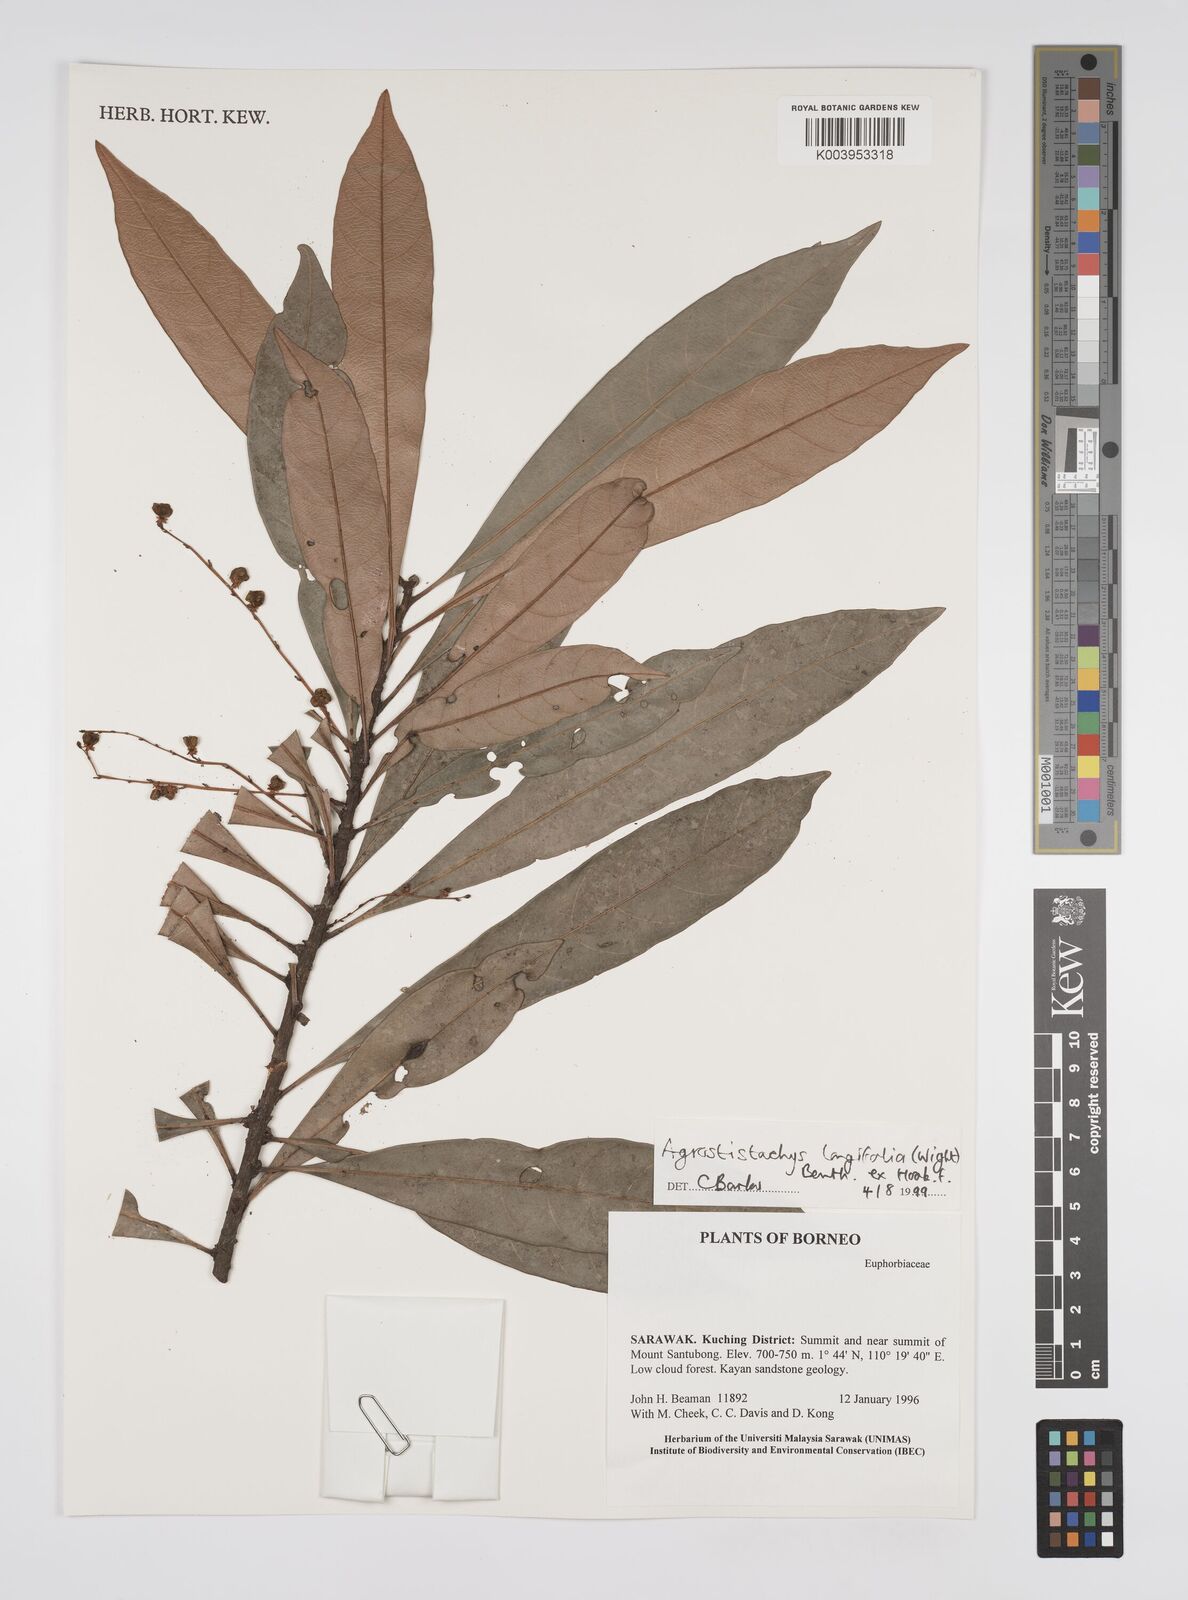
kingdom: Plantae
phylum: Tracheophyta
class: Magnoliopsida
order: Malpighiales
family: Euphorbiaceae
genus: Agrostistachys
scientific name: Agrostistachys
